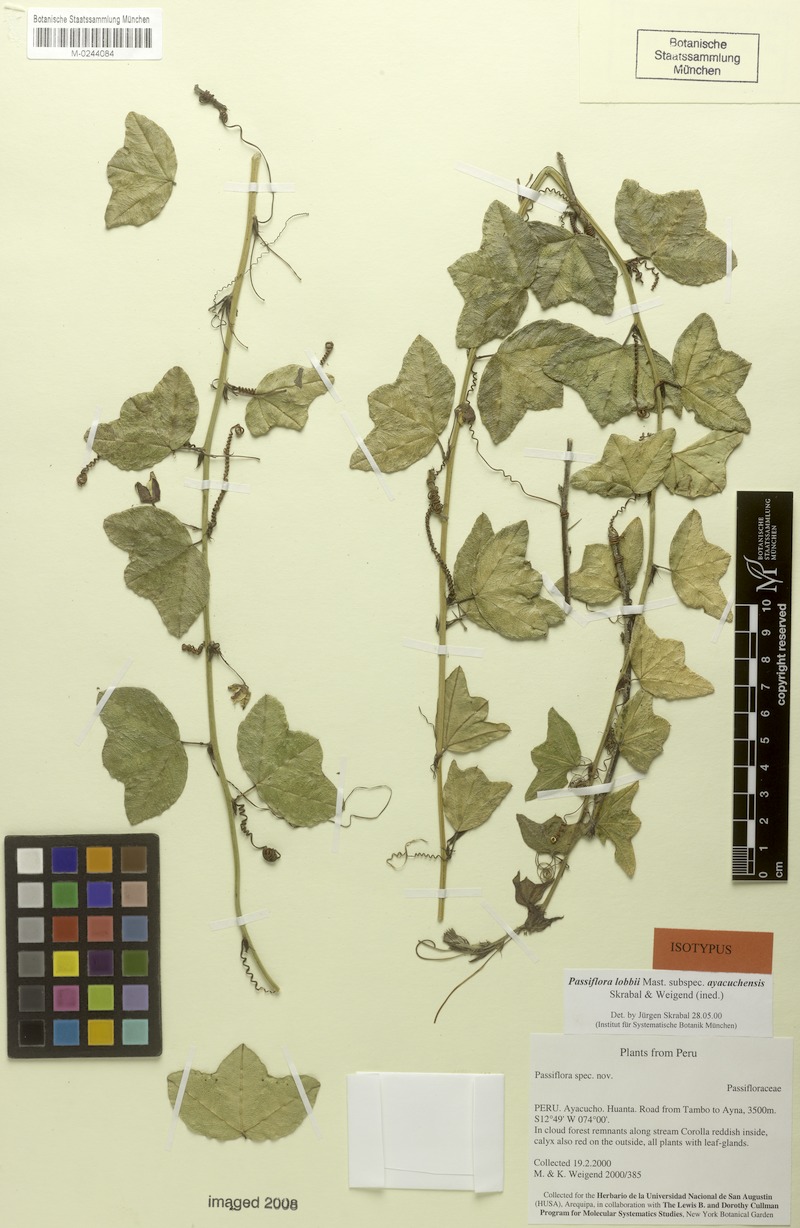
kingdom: Plantae
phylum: Tracheophyta
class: Magnoliopsida
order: Malpighiales
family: Passifloraceae
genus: Passiflora
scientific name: Passiflora lobbii
